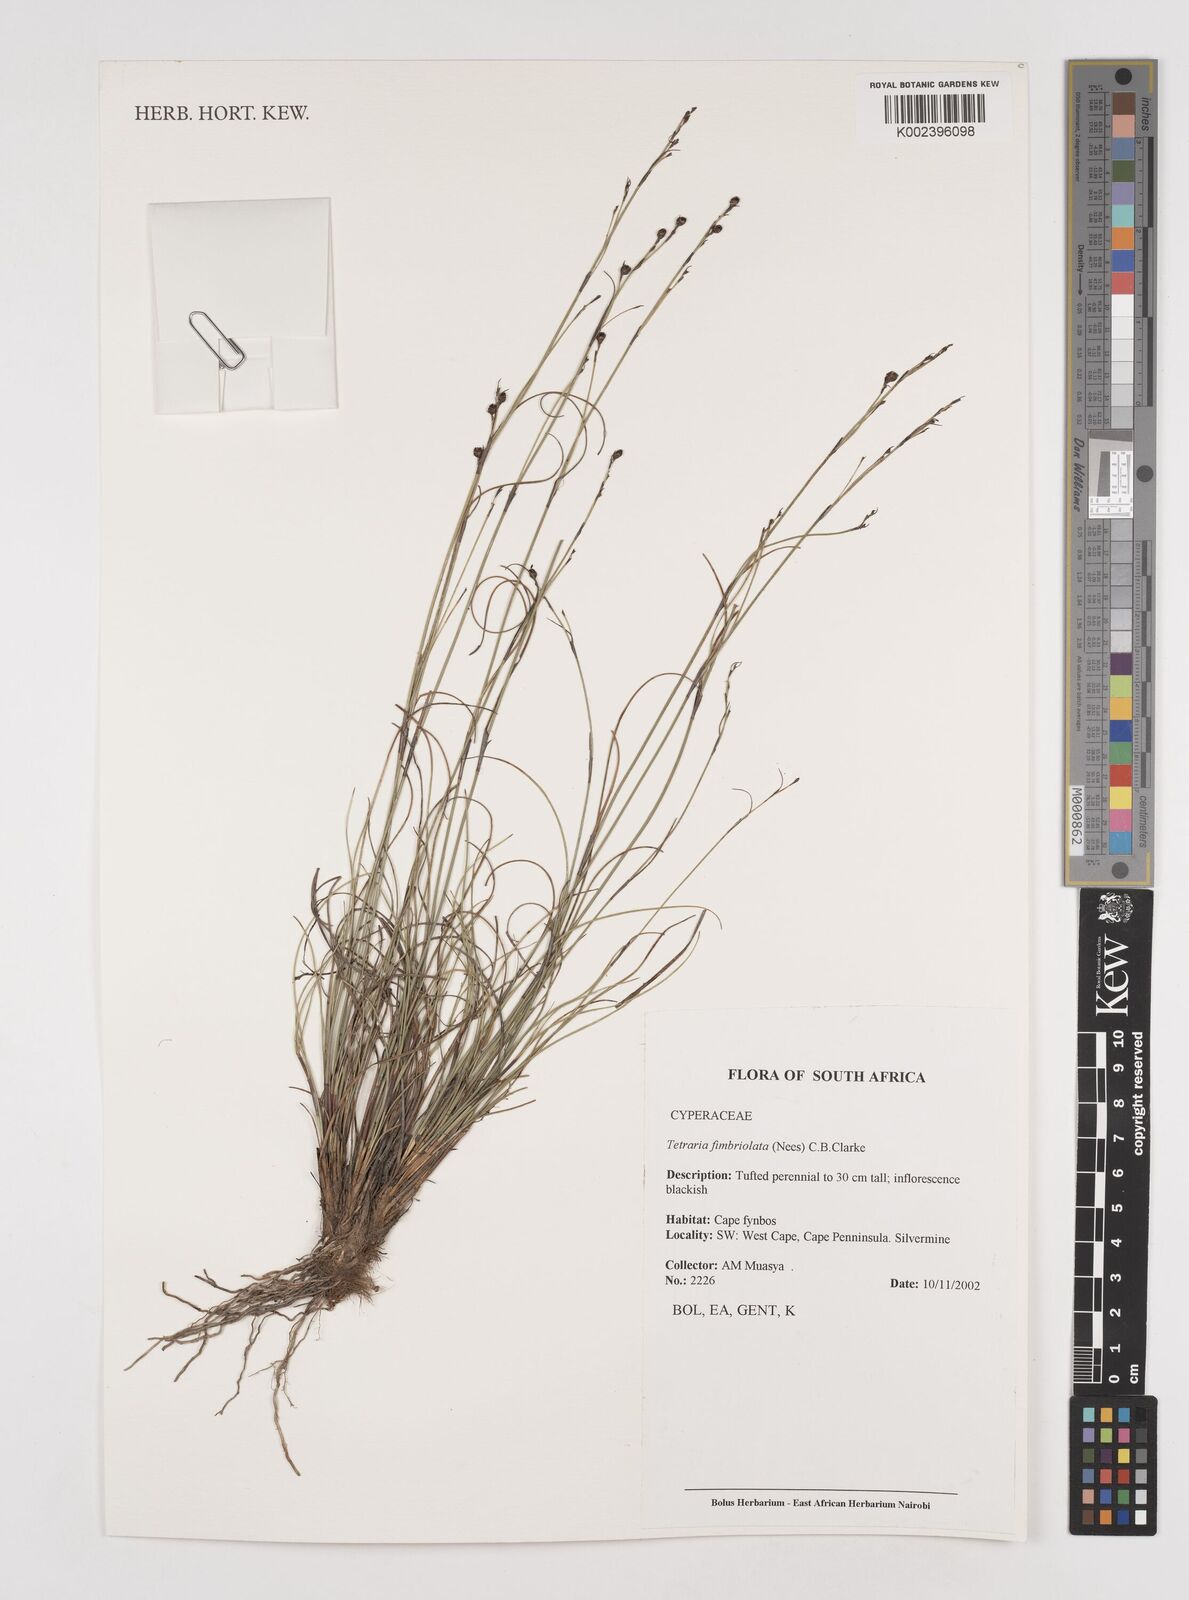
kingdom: Plantae
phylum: Tracheophyta
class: Liliopsida
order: Poales
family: Cyperaceae
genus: Tetraria
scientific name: Tetraria fimbriolata
